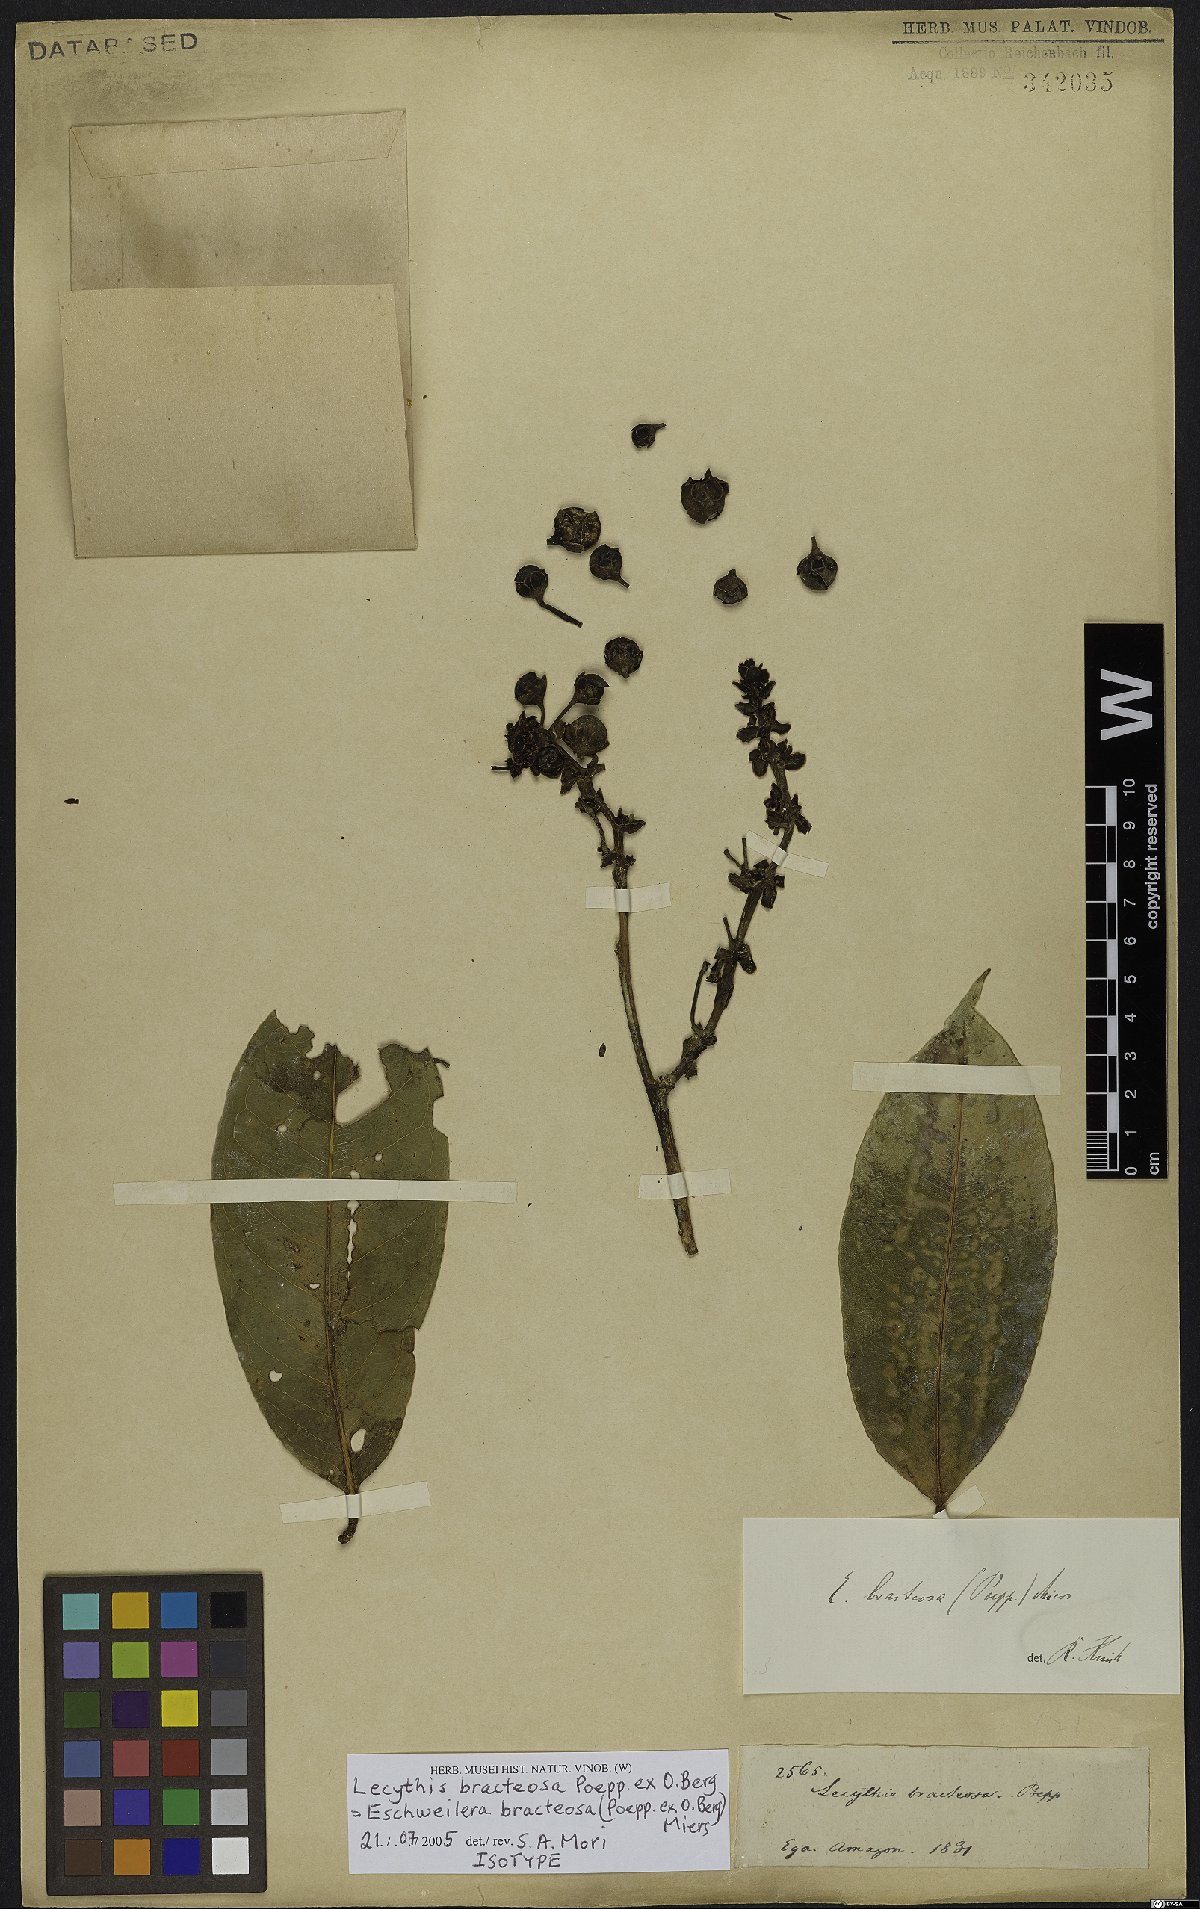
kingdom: Plantae
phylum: Tracheophyta
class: Magnoliopsida
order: Ericales
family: Lecythidaceae
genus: Eschweilera
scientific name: Eschweilera bracteosa
